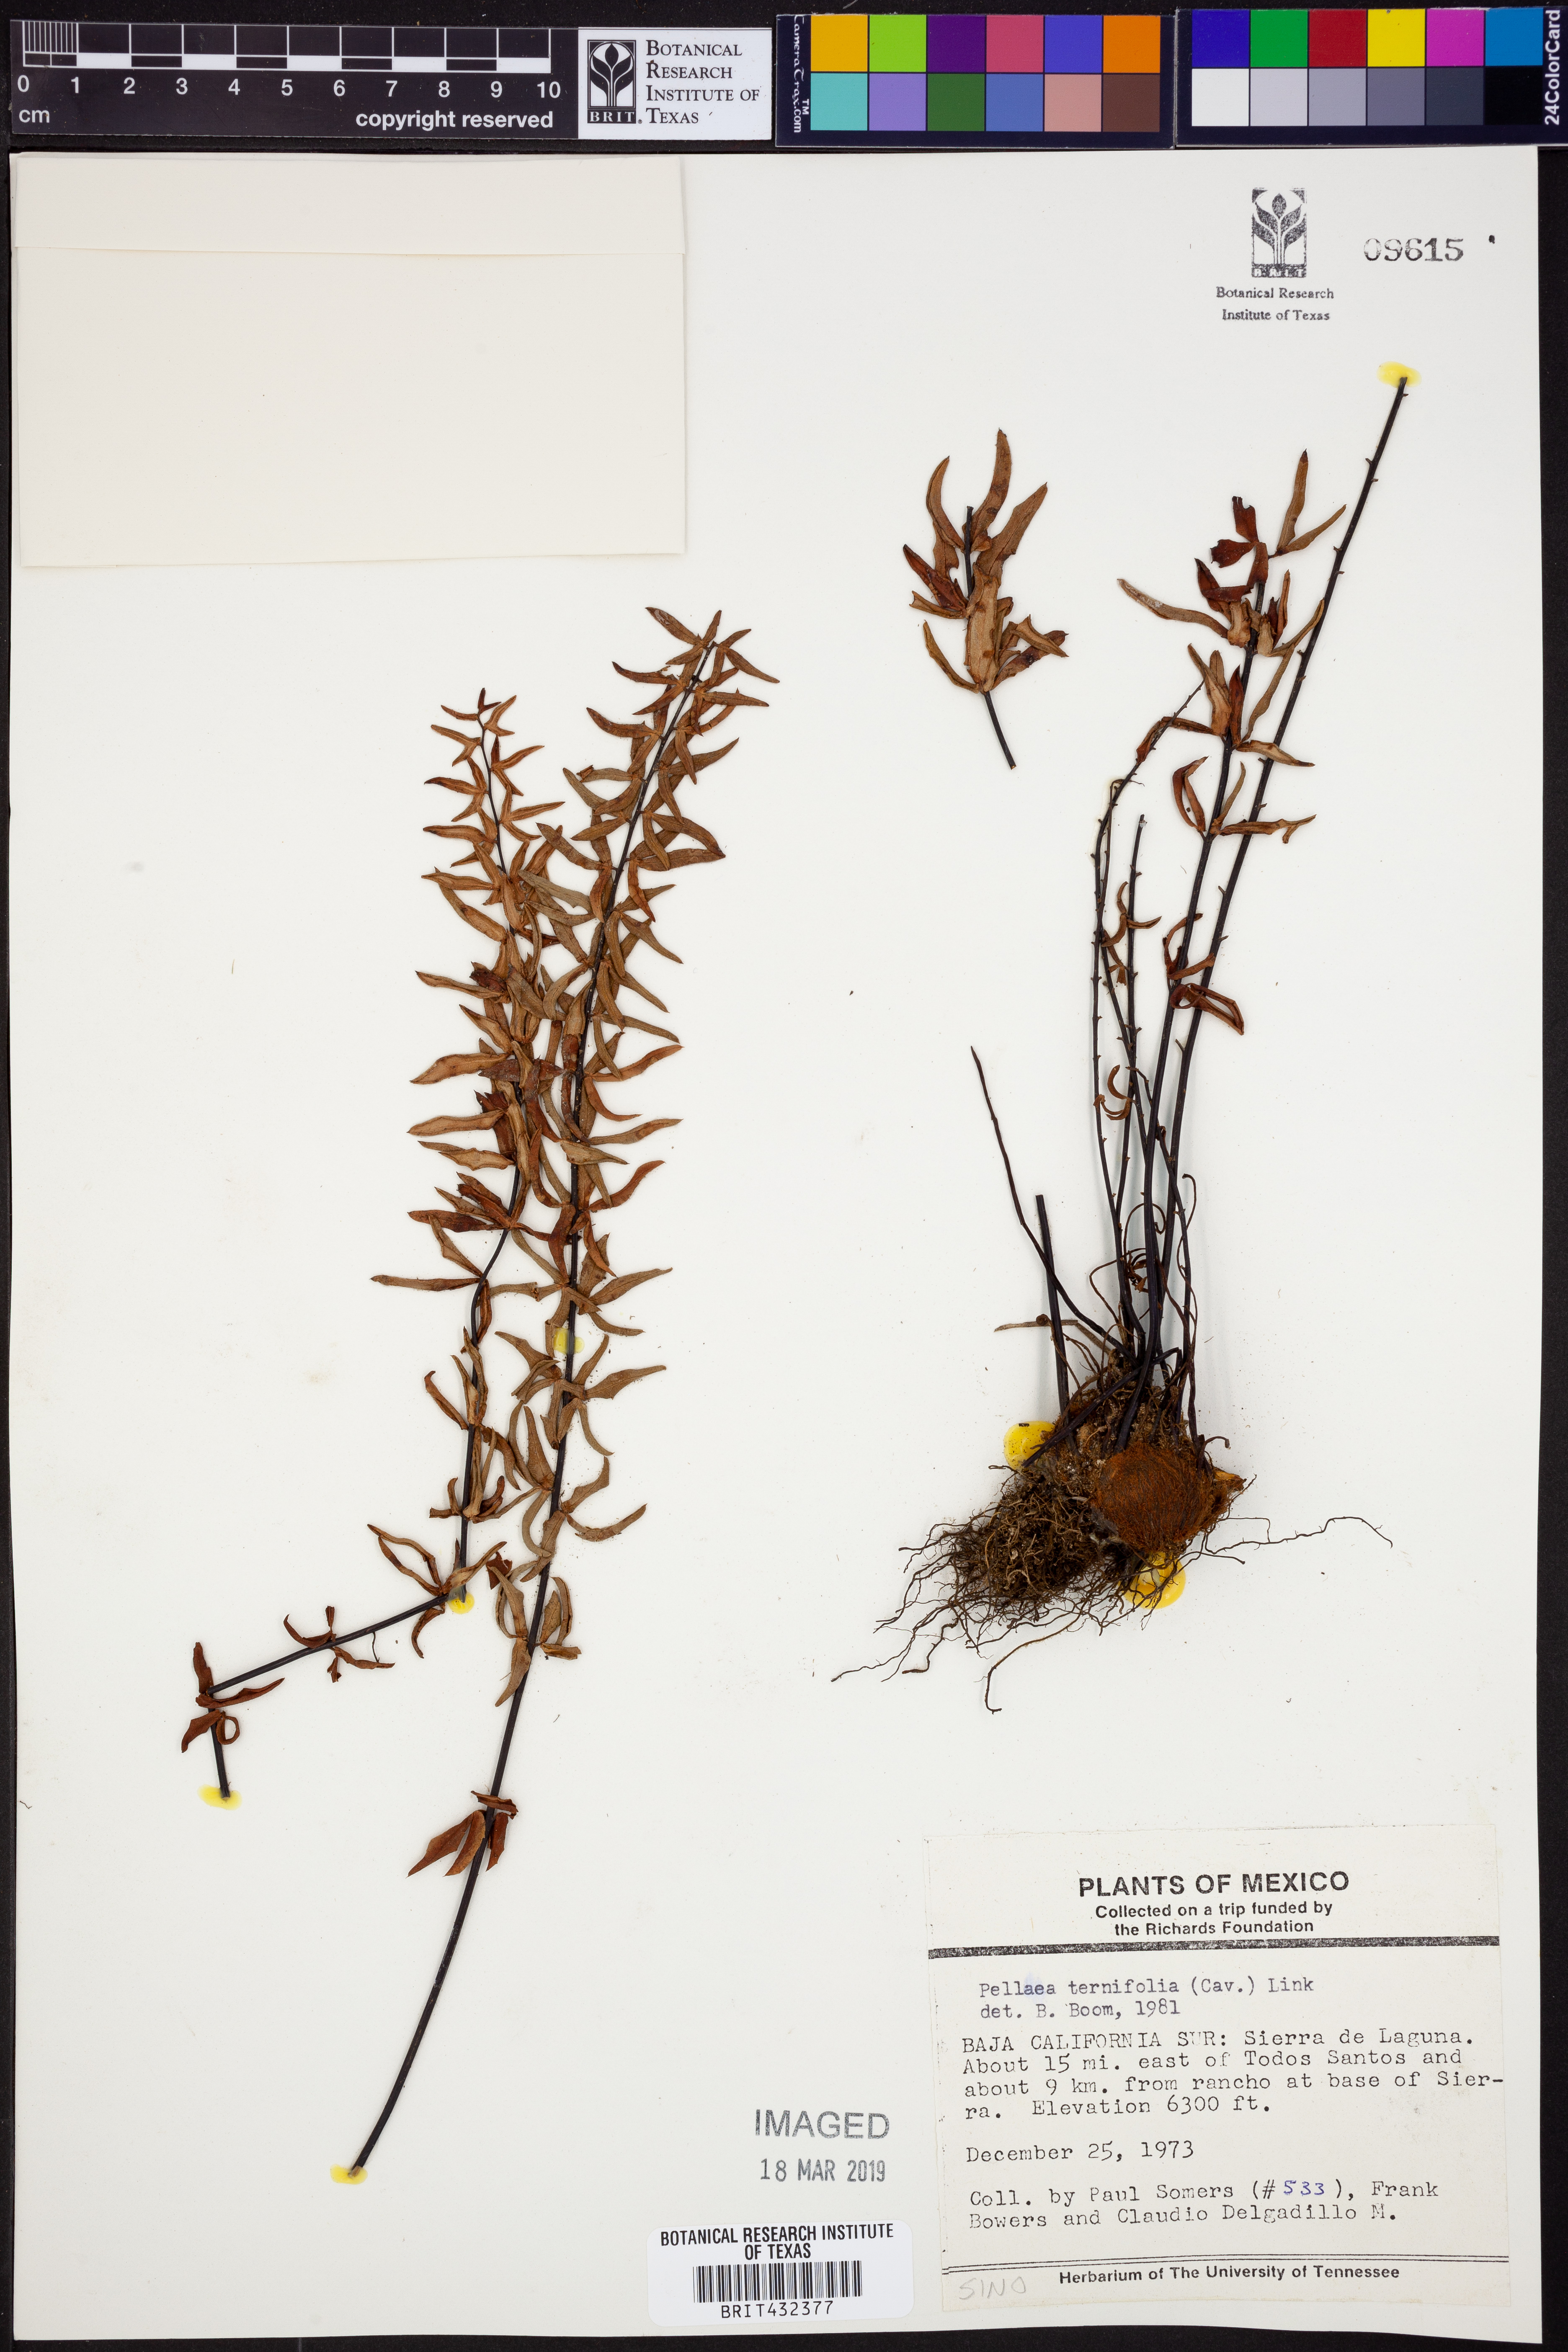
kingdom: Plantae
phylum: Tracheophyta
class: Polypodiopsida
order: Polypodiales
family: Pteridaceae
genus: Pellaea
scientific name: Pellaea ternifolia
